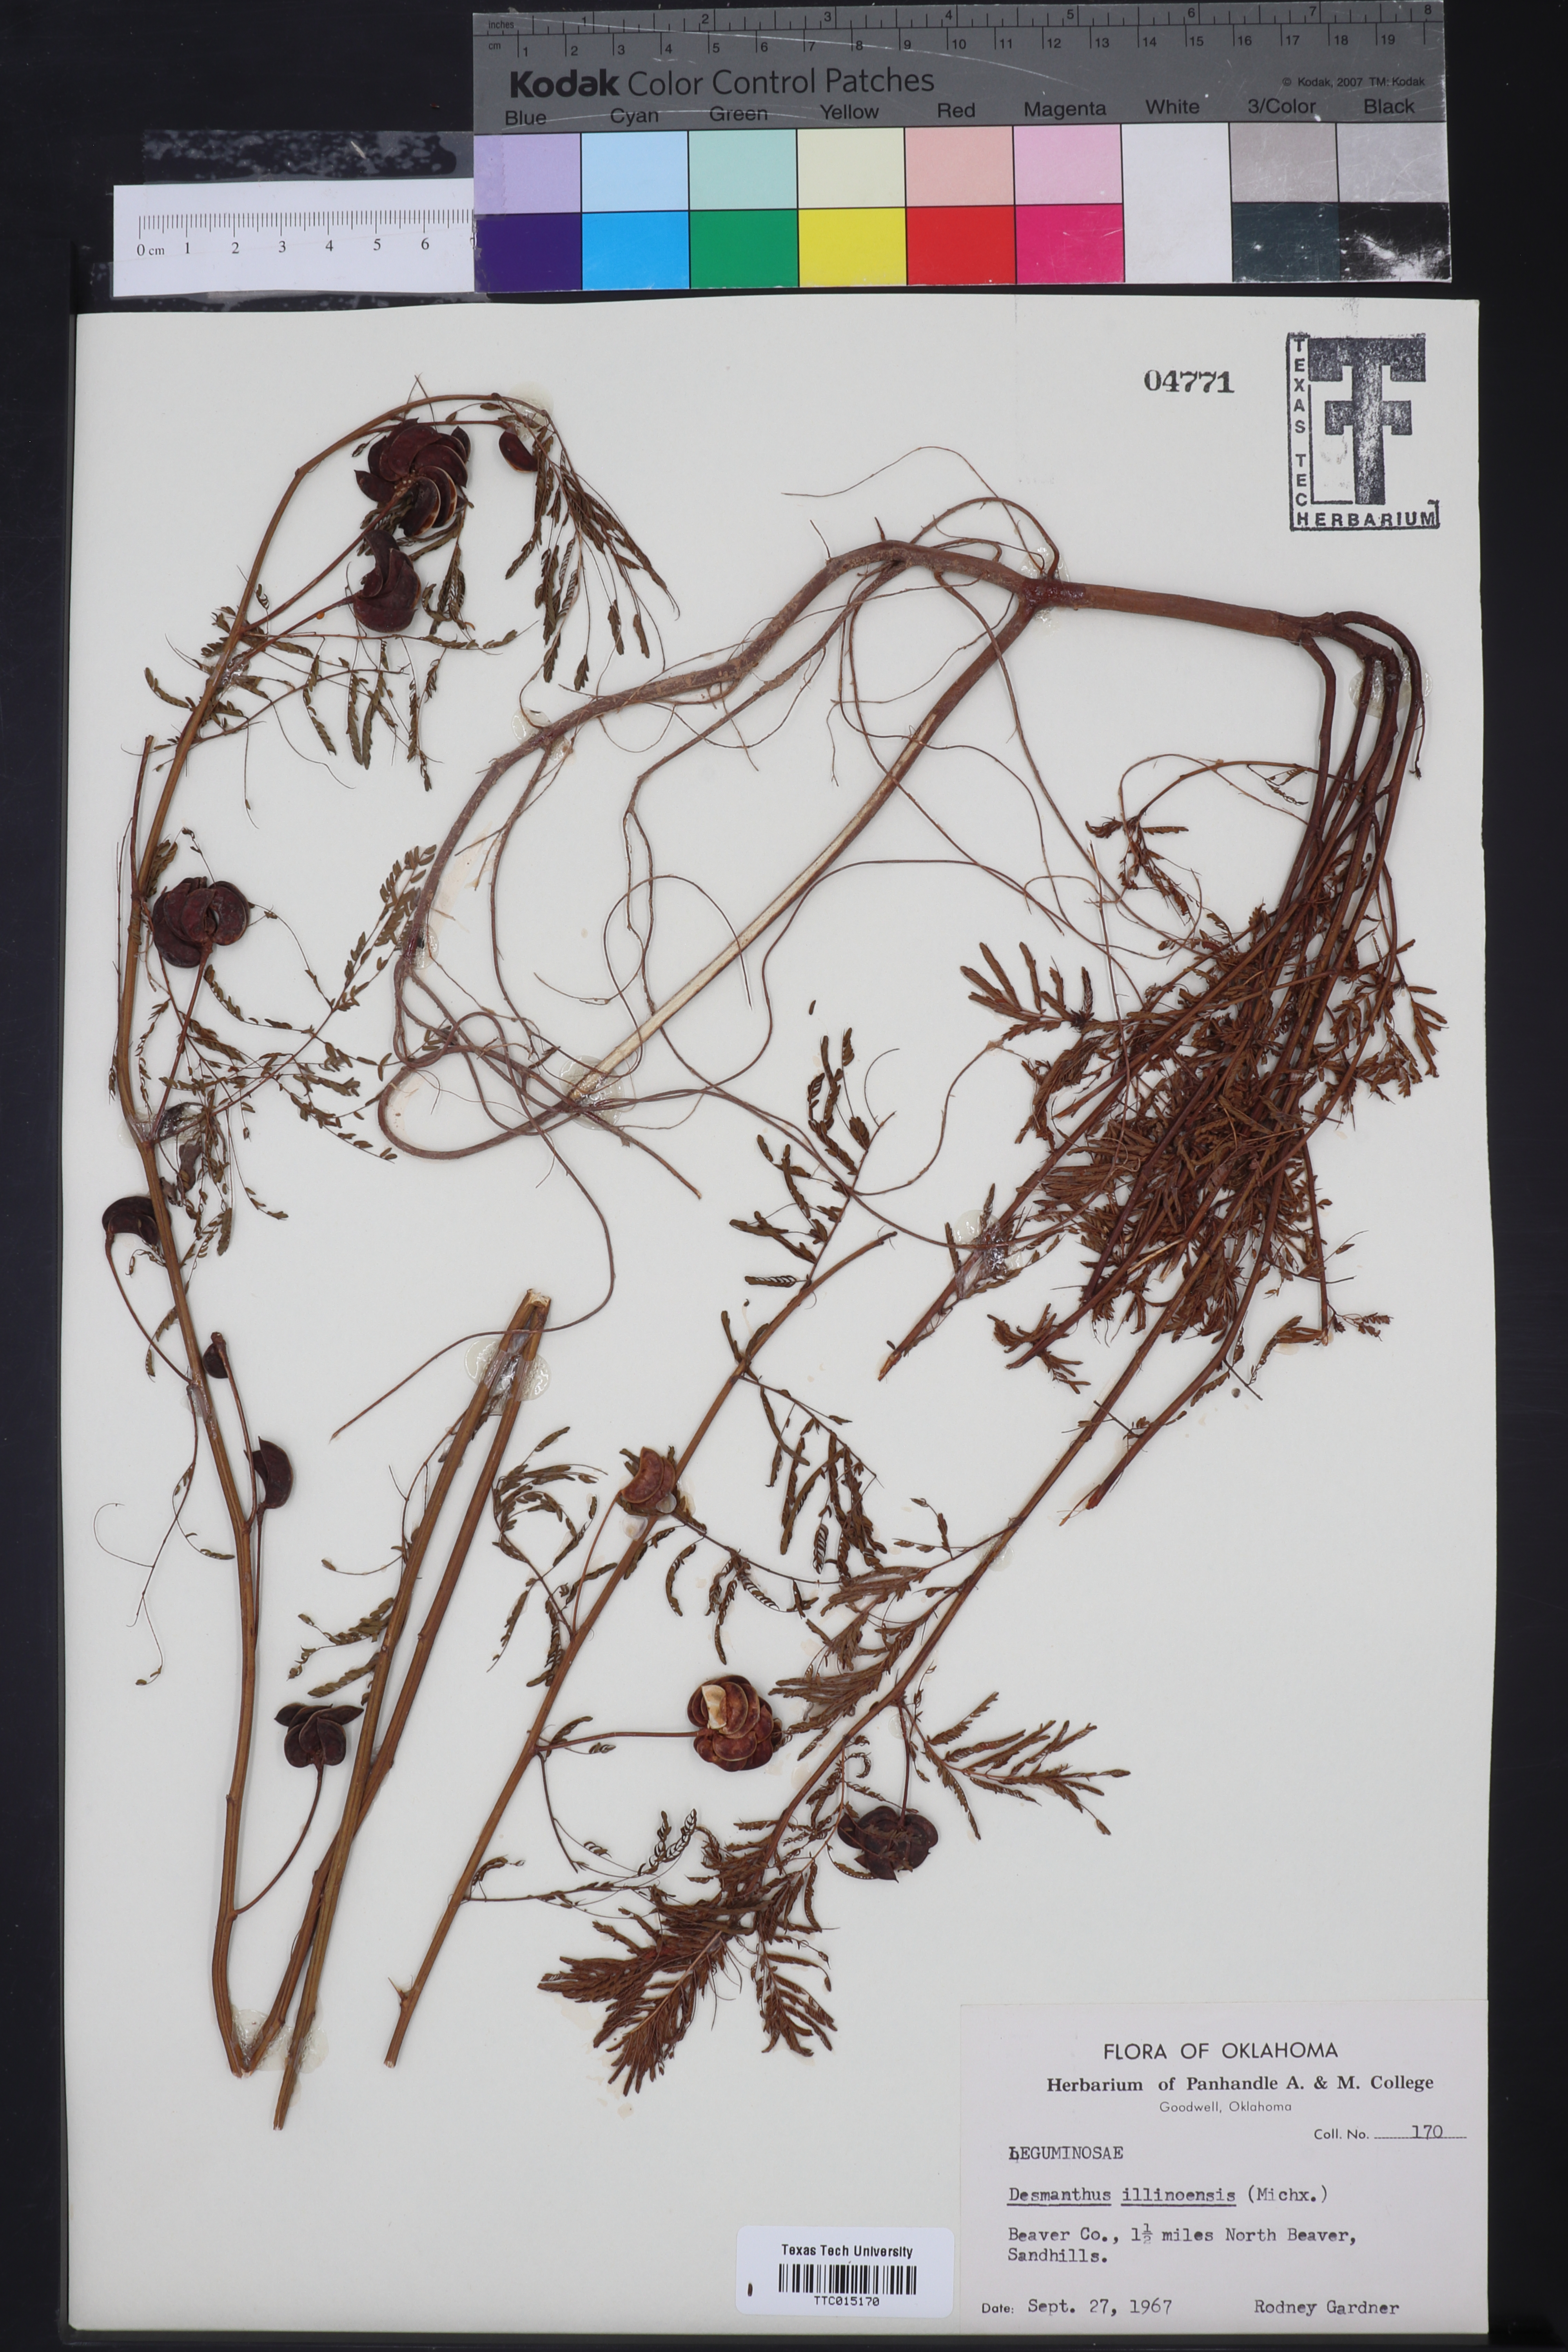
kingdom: Plantae
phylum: Tracheophyta
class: Magnoliopsida
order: Fabales
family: Fabaceae
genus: Desmanthus
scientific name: Desmanthus illinoensis
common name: Illinois bundle-flower
